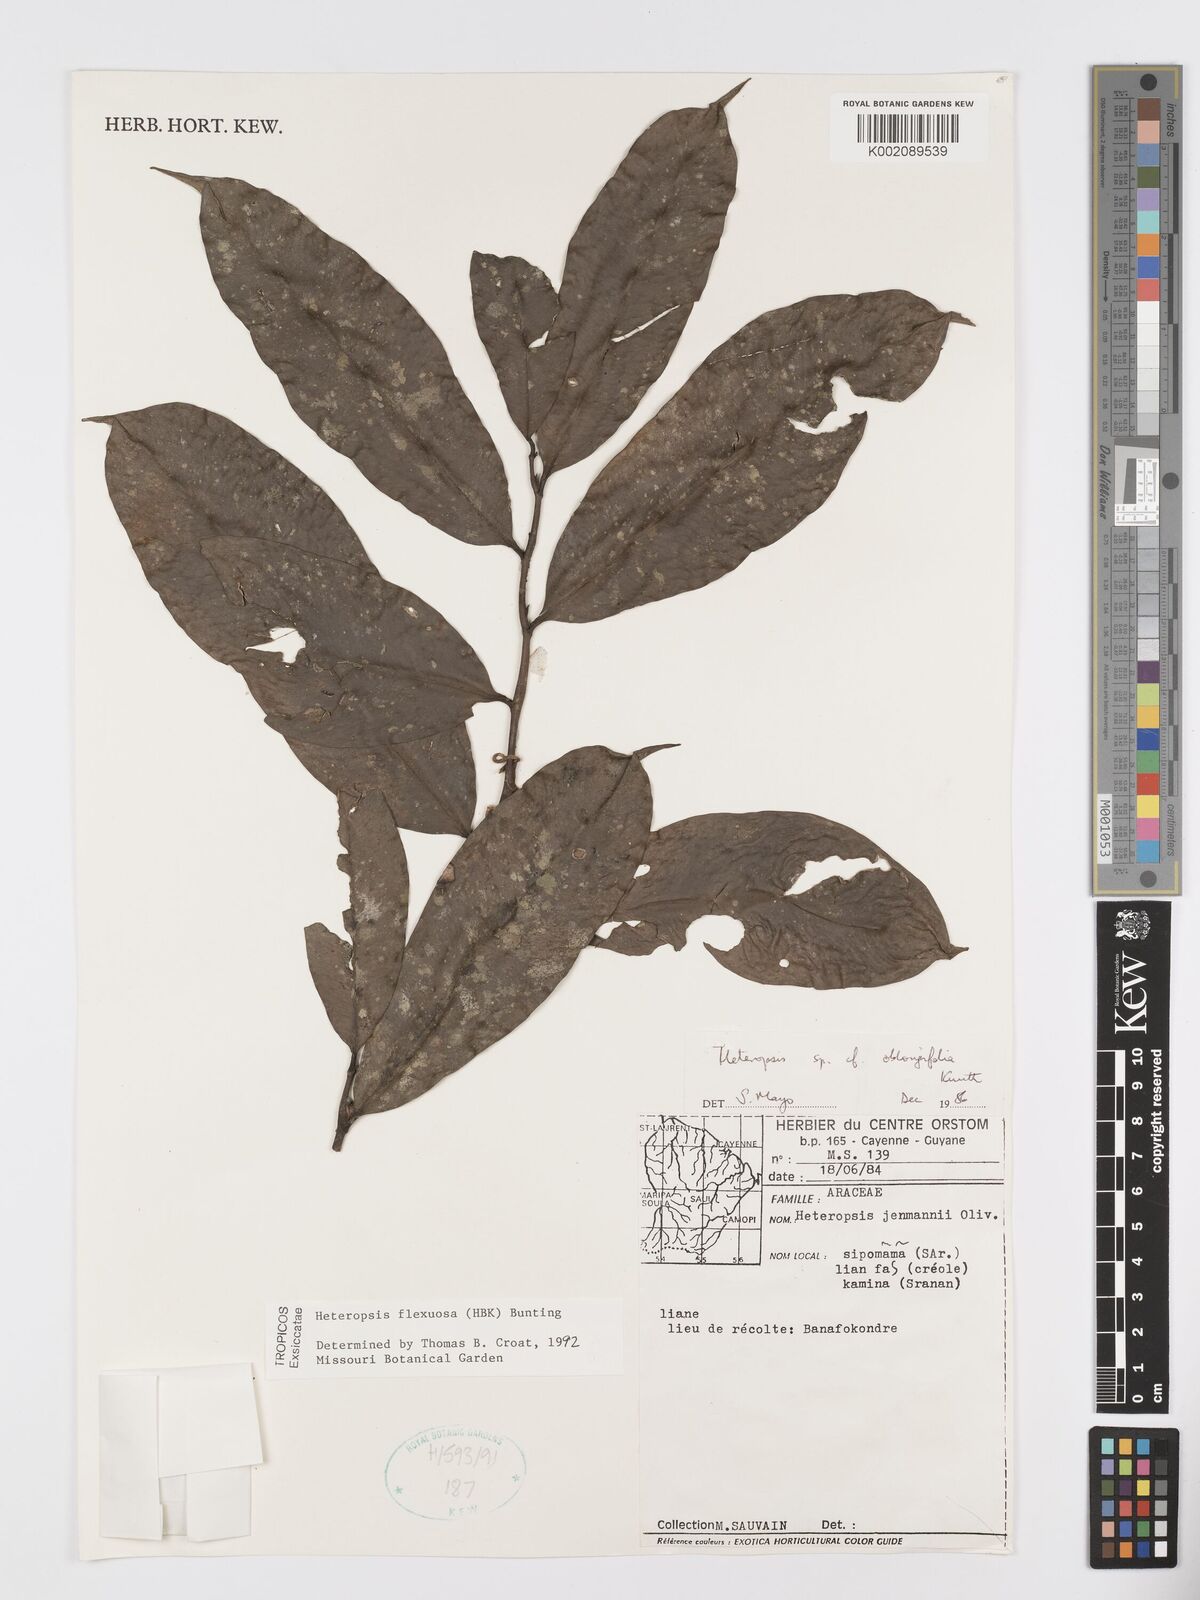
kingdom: Plantae
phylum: Tracheophyta
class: Liliopsida
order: Alismatales
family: Araceae
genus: Heteropsis
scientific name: Heteropsis flexuosa
